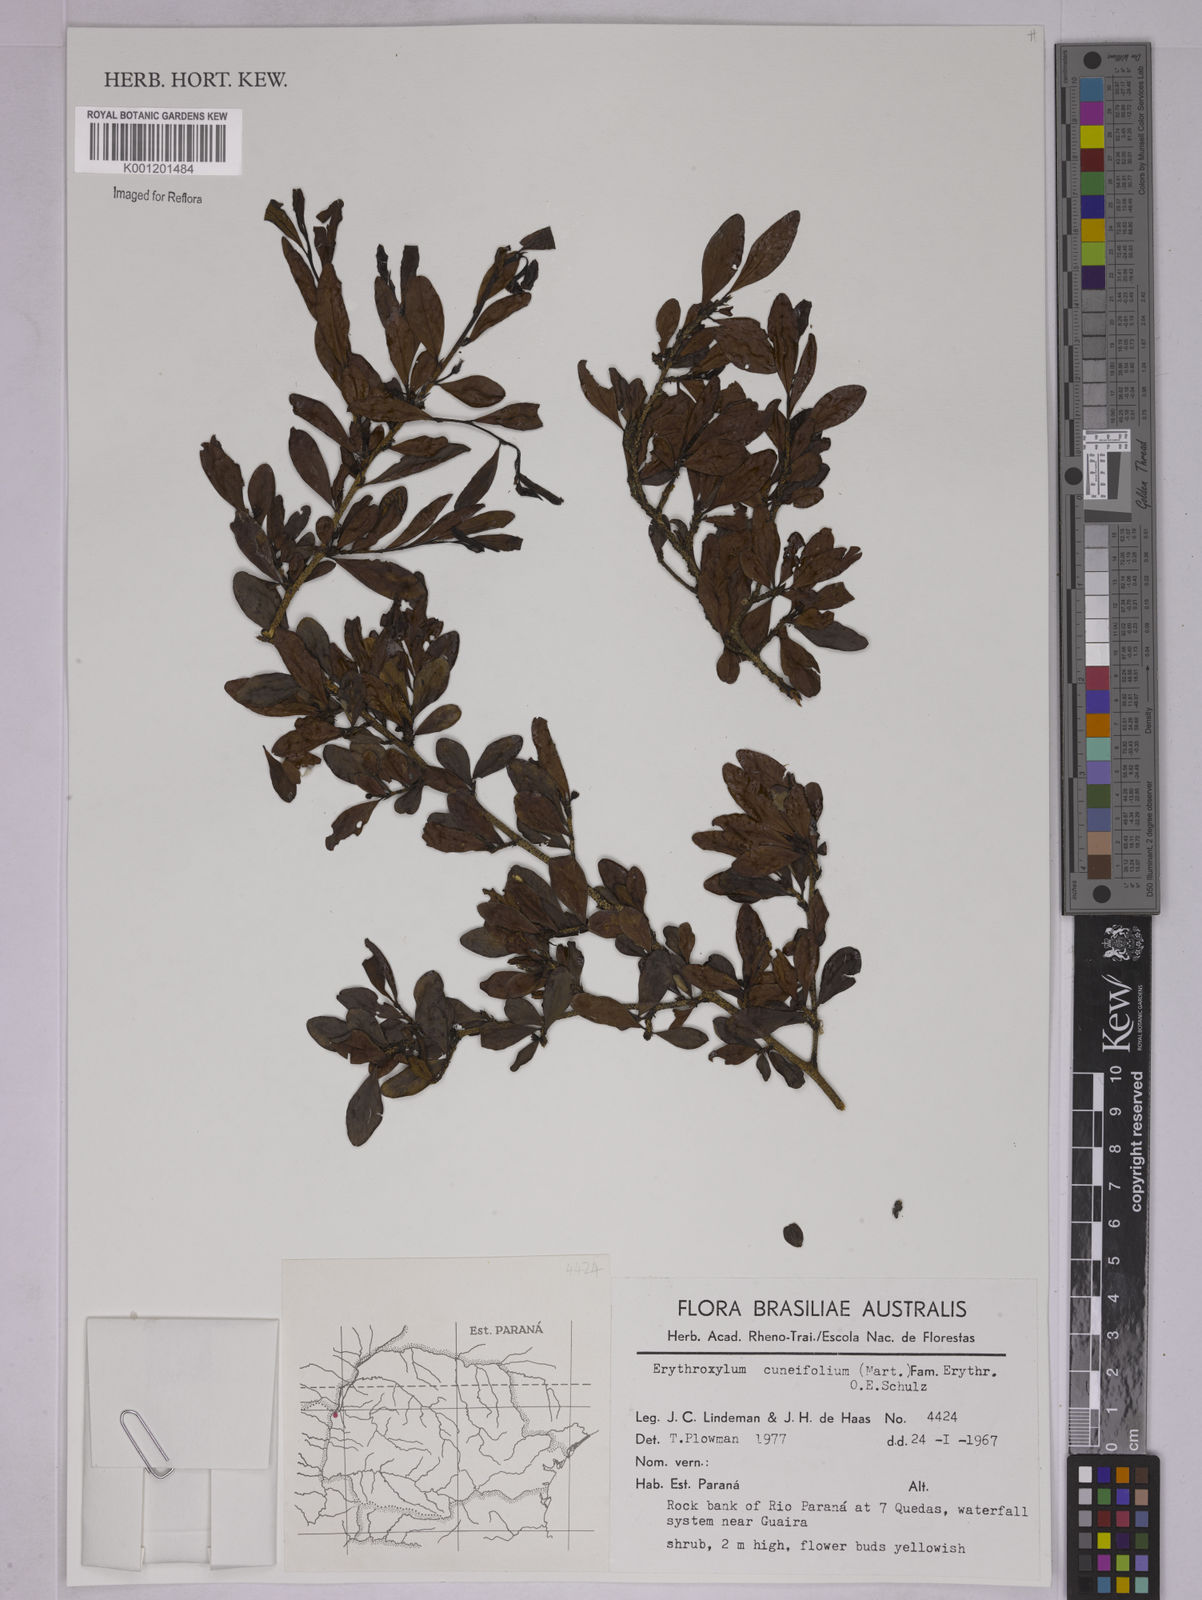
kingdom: Plantae
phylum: Tracheophyta
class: Magnoliopsida
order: Malpighiales
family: Erythroxylaceae
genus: Erythroxylum
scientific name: Erythroxylum cuneifolium
